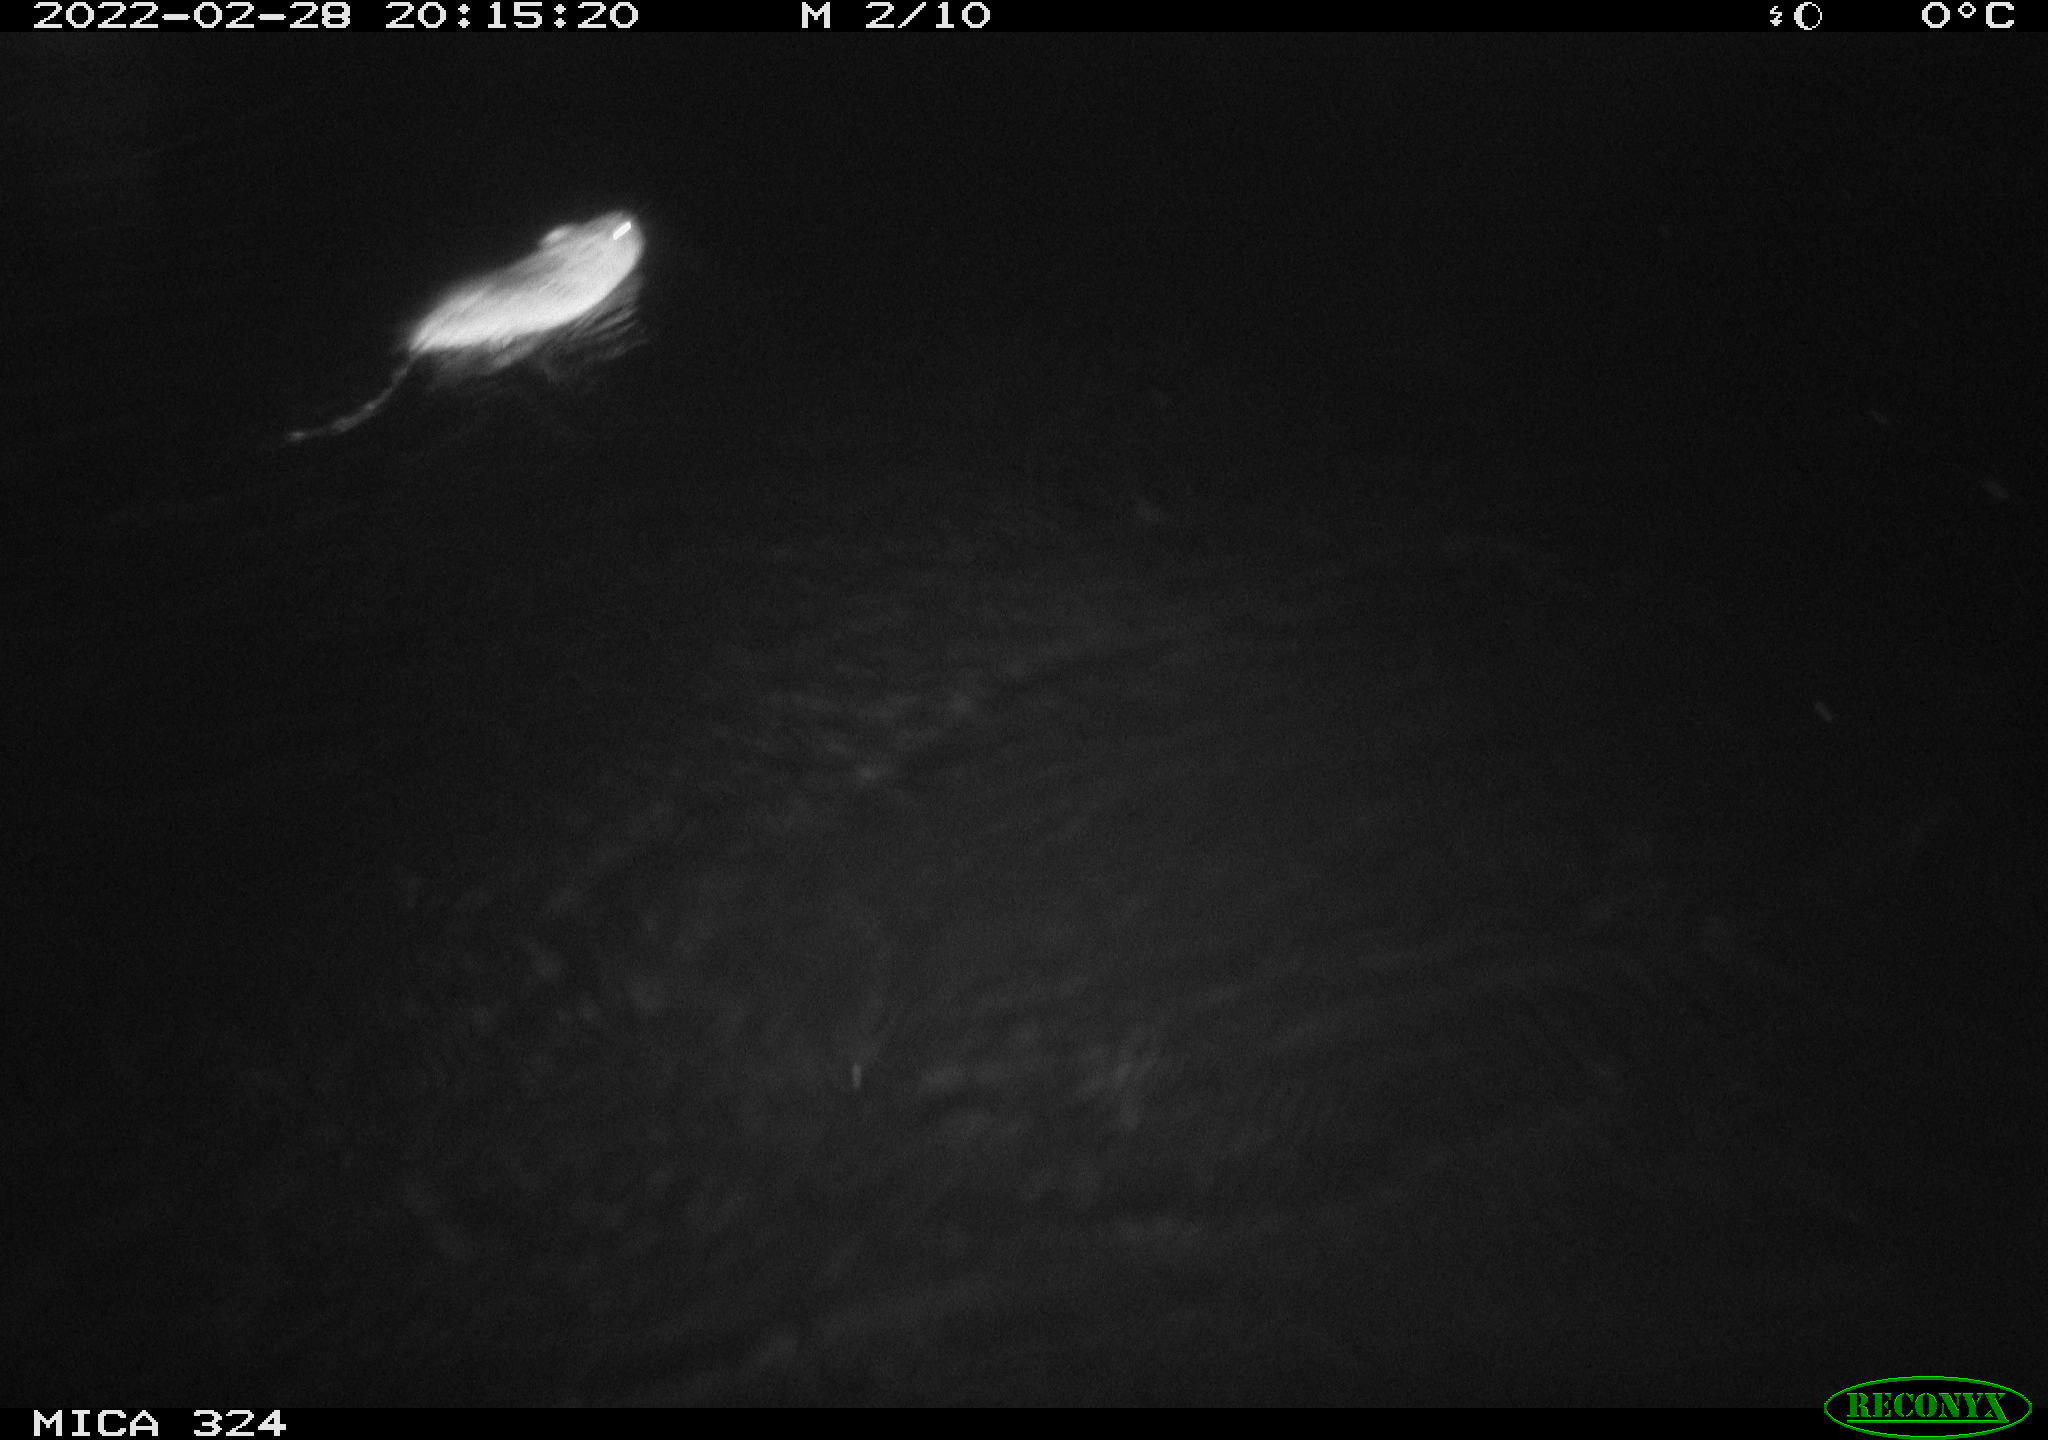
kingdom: Animalia
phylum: Chordata
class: Mammalia
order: Rodentia
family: Cricetidae
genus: Ondatra
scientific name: Ondatra zibethicus
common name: Muskrat
